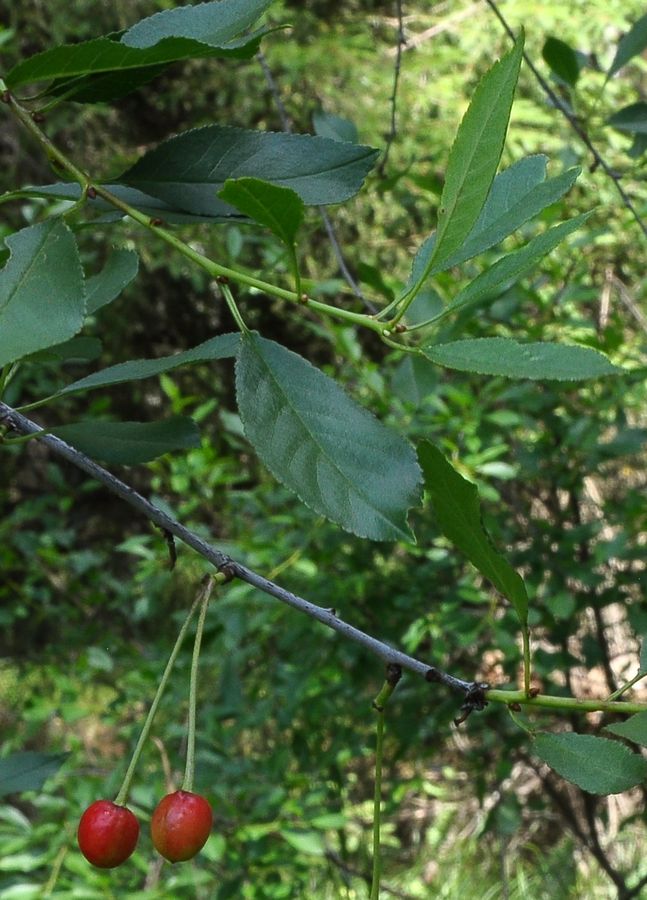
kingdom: Plantae
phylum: Tracheophyta
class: Magnoliopsida
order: Rosales
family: Rosaceae
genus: Prunus
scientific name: Prunus cerasus
